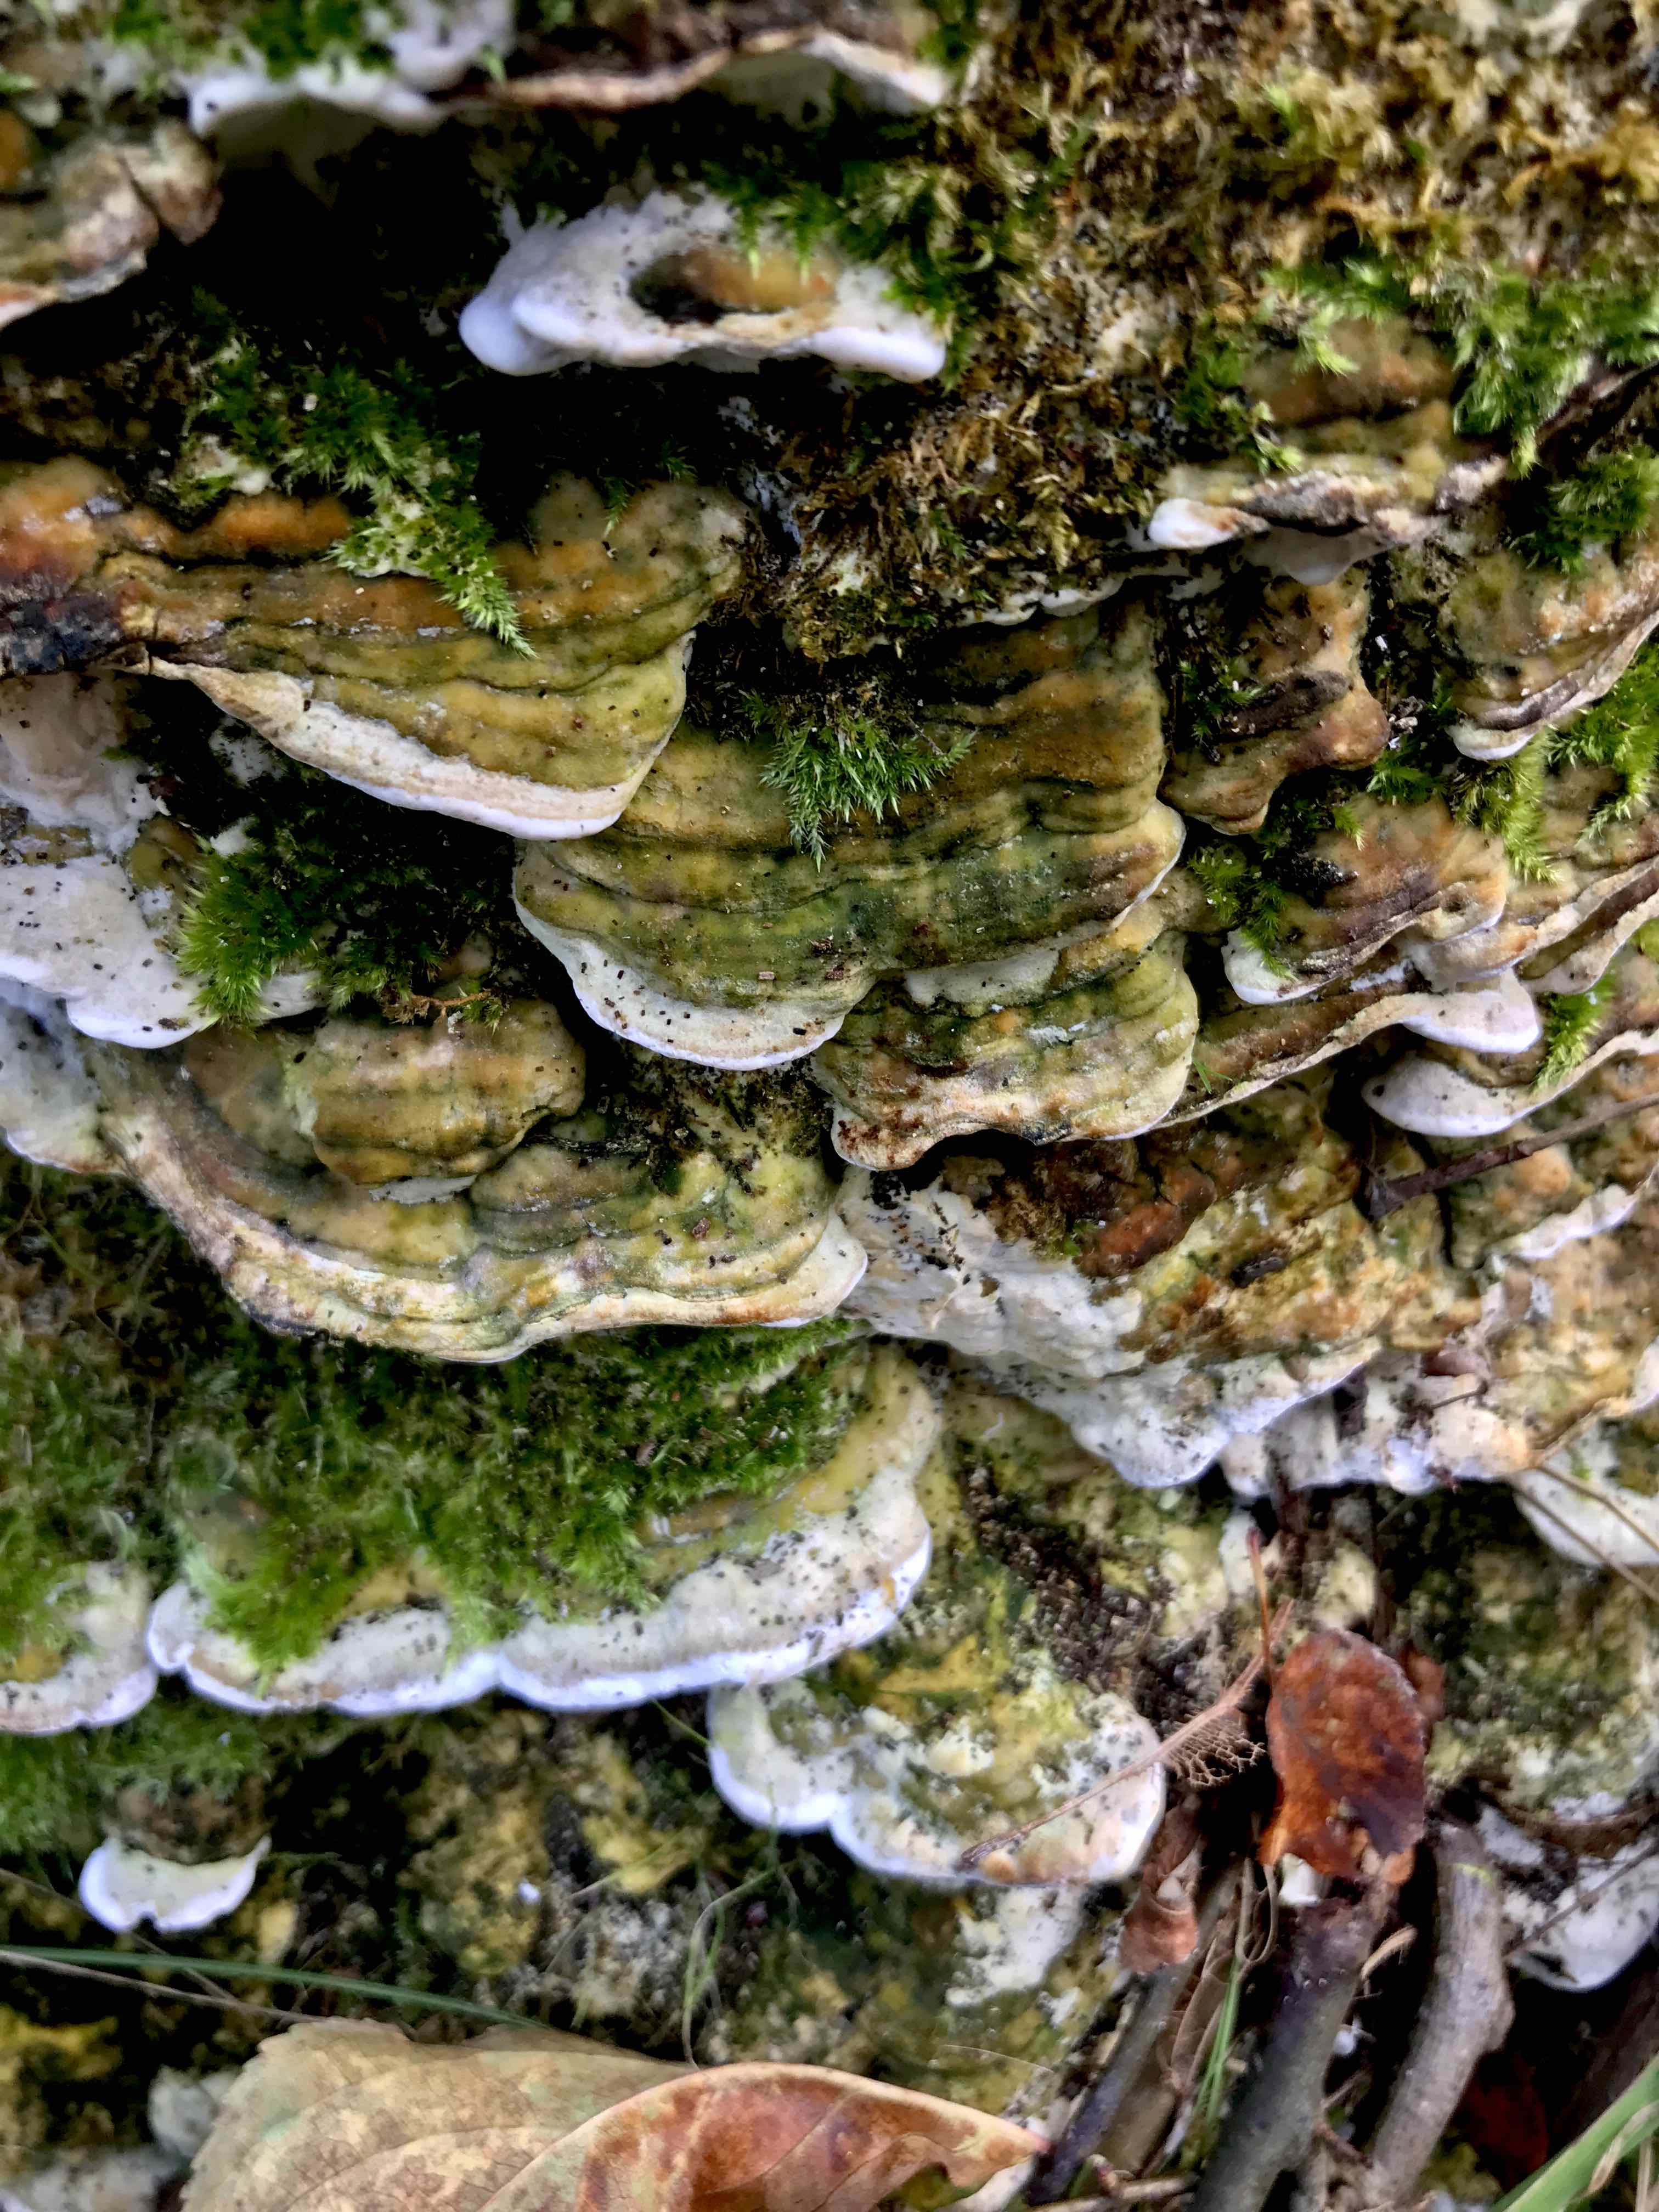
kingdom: Fungi
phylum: Basidiomycota
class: Agaricomycetes
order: Hymenochaetales
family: Oxyporaceae
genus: Oxyporus
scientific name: Oxyporus populinus
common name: sammenvokset trylleporesvamp
